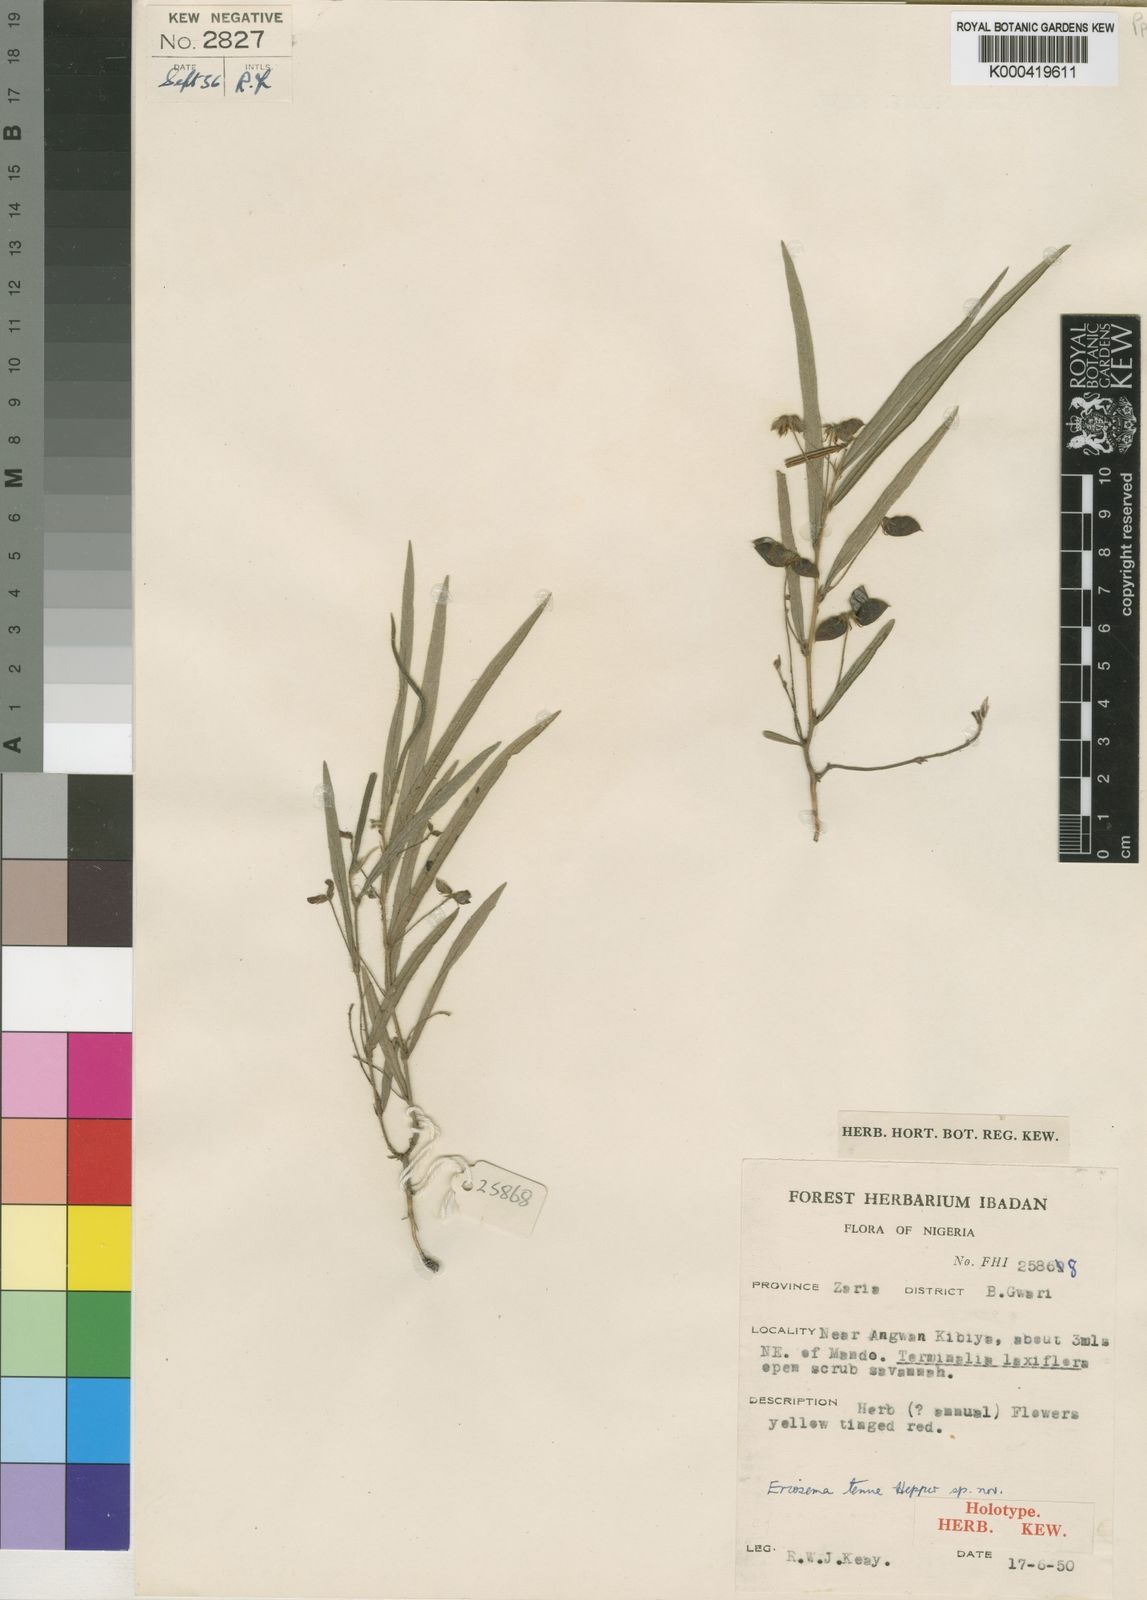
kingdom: Plantae
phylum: Tracheophyta
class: Magnoliopsida
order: Fabales
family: Fabaceae
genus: Eriosema
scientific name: Eriosema youngii
